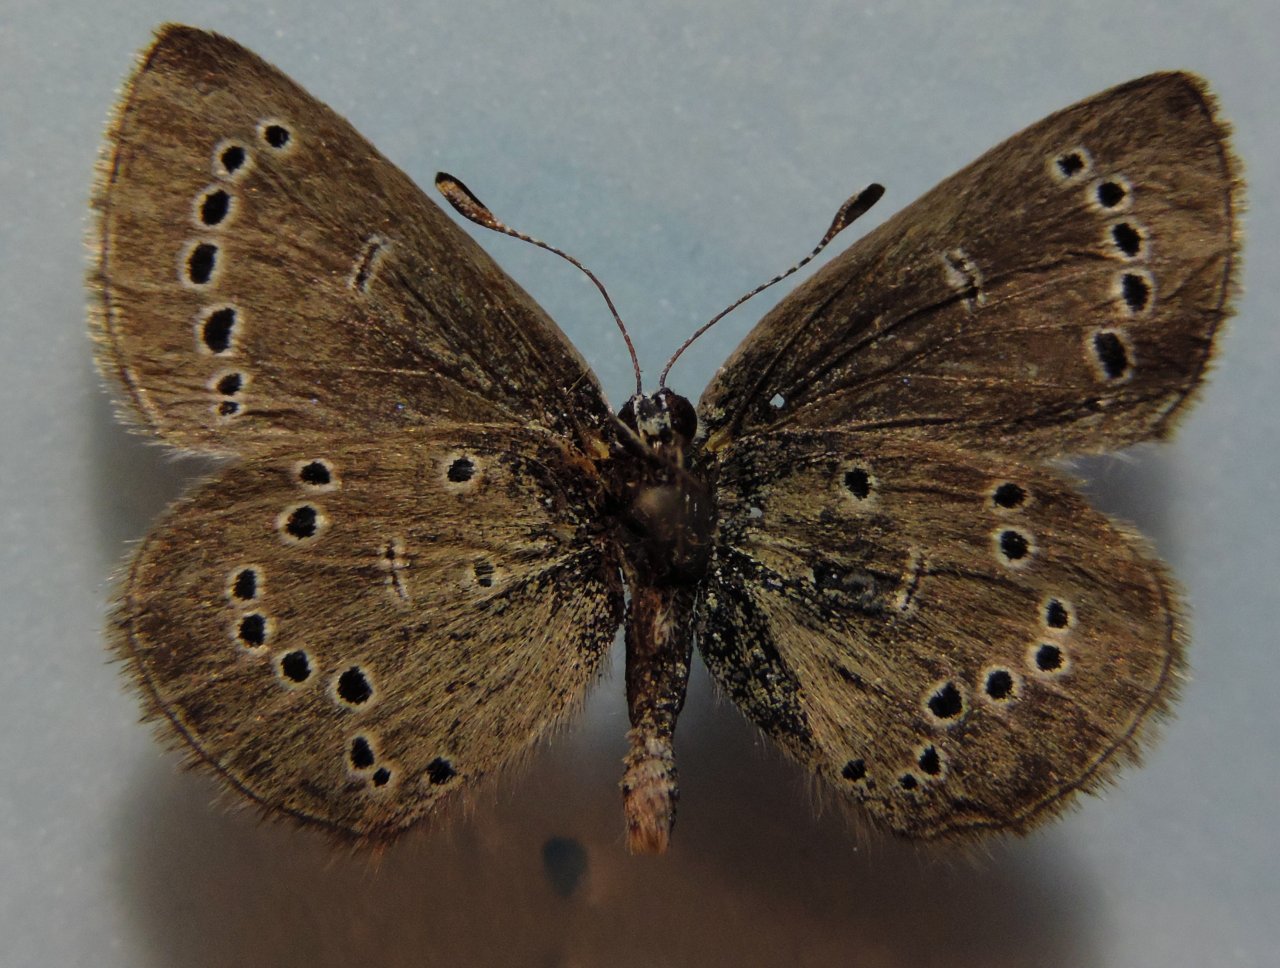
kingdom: Animalia
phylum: Arthropoda
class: Insecta
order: Lepidoptera
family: Lycaenidae
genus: Glaucopsyche
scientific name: Glaucopsyche lygdamus
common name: Silvery Blue
